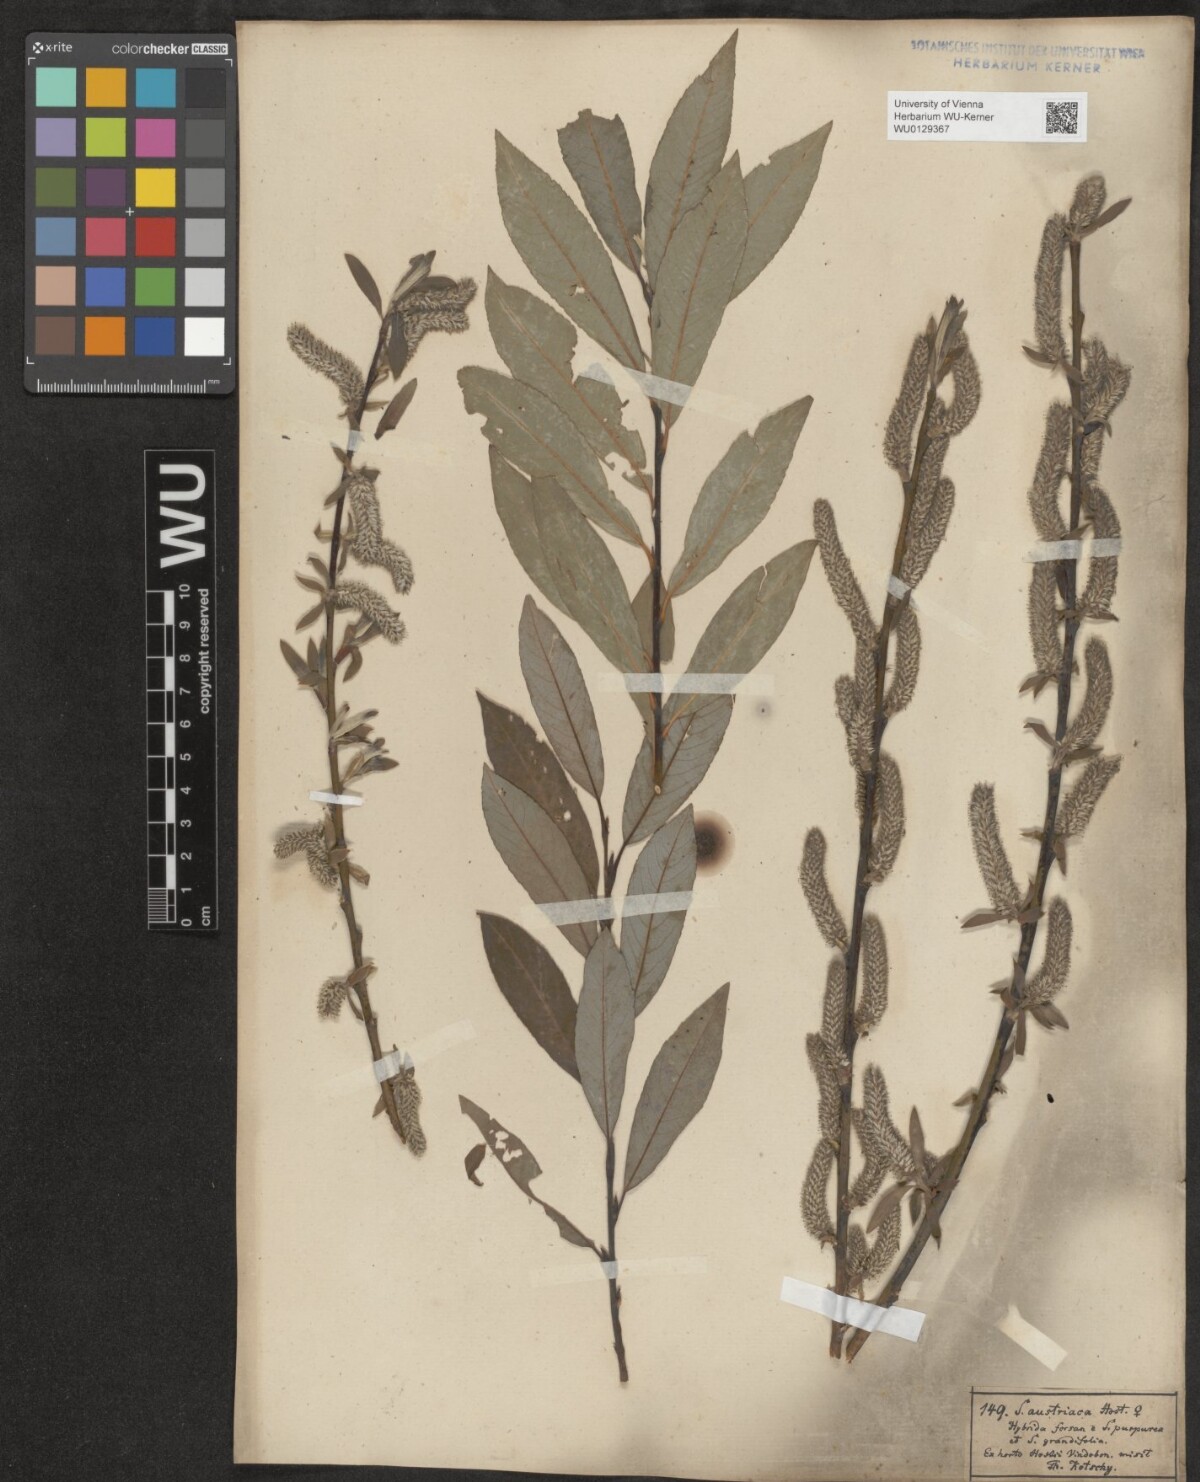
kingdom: Plantae
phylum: Tracheophyta
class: Magnoliopsida
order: Malpighiales
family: Salicaceae
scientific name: Salicaceae
